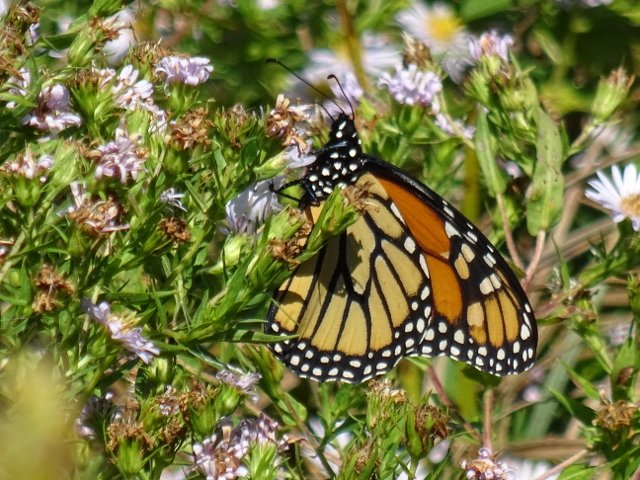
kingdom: Animalia
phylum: Arthropoda
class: Insecta
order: Lepidoptera
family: Nymphalidae
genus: Danaus
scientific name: Danaus plexippus
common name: Monarch
